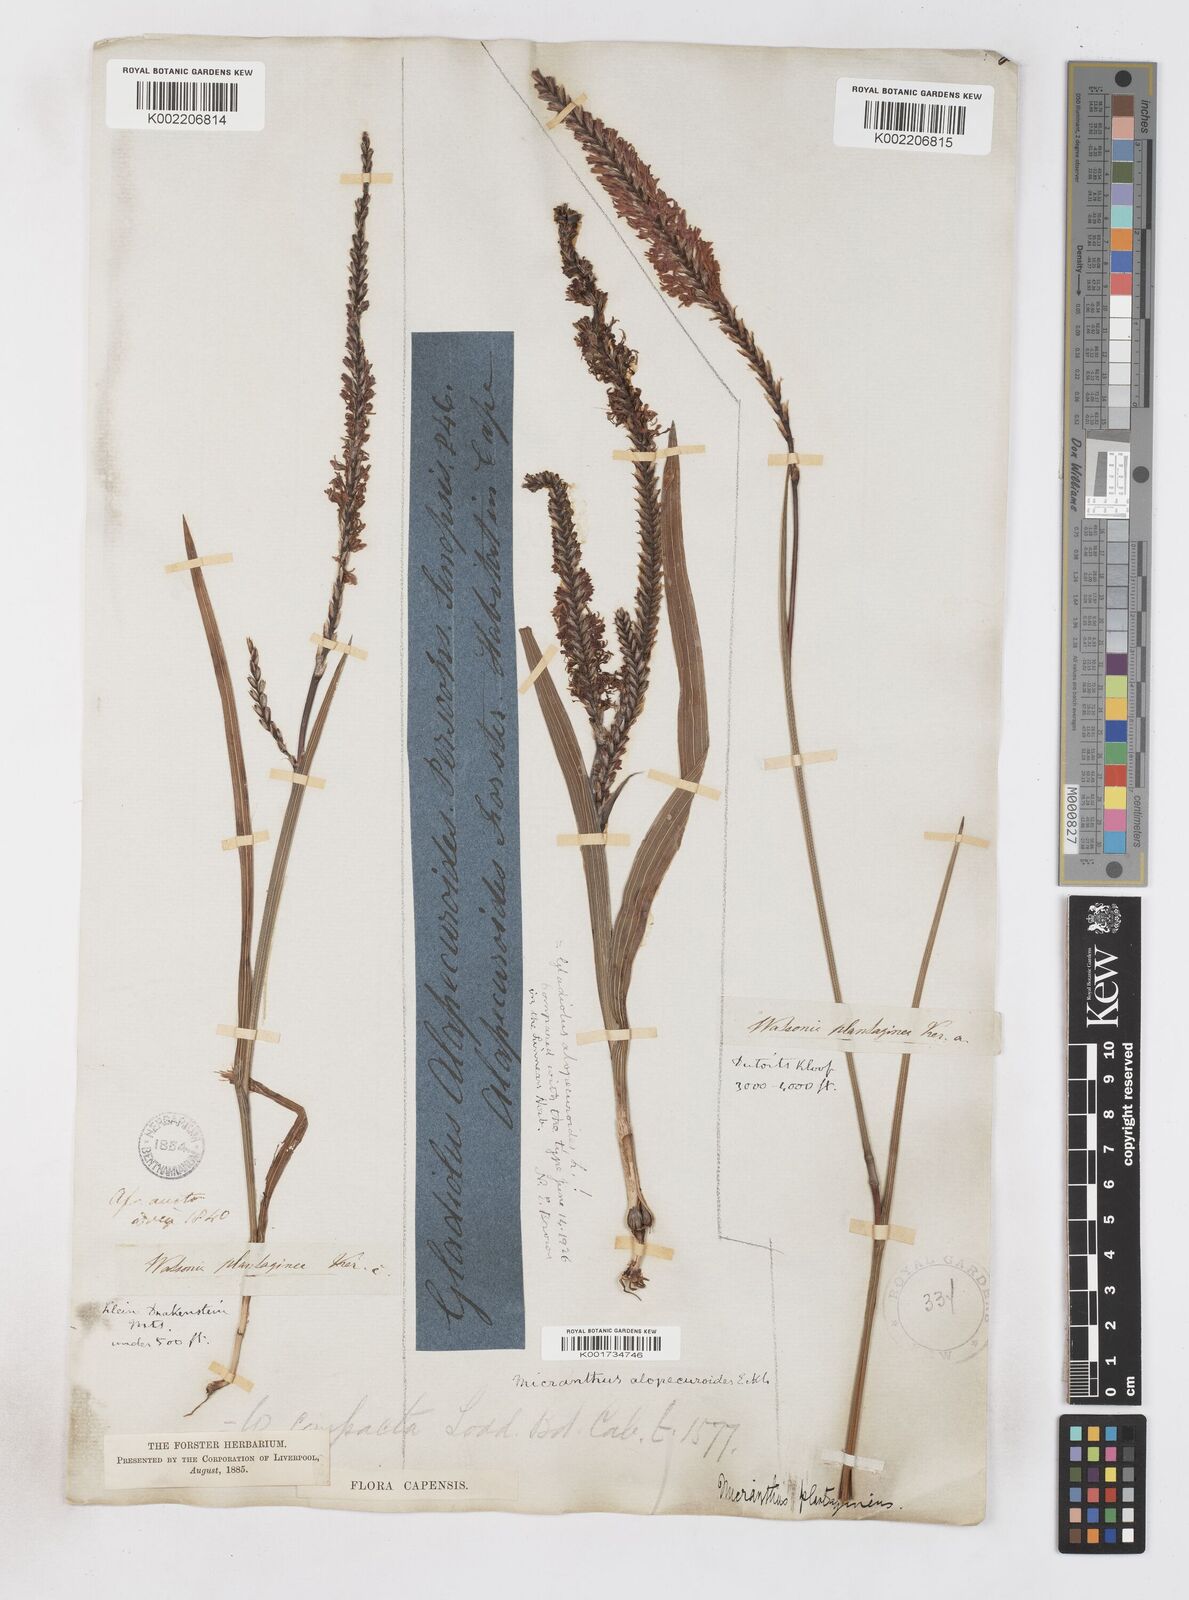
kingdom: Plantae
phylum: Tracheophyta
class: Liliopsida
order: Asparagales
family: Iridaceae
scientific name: Iridaceae
